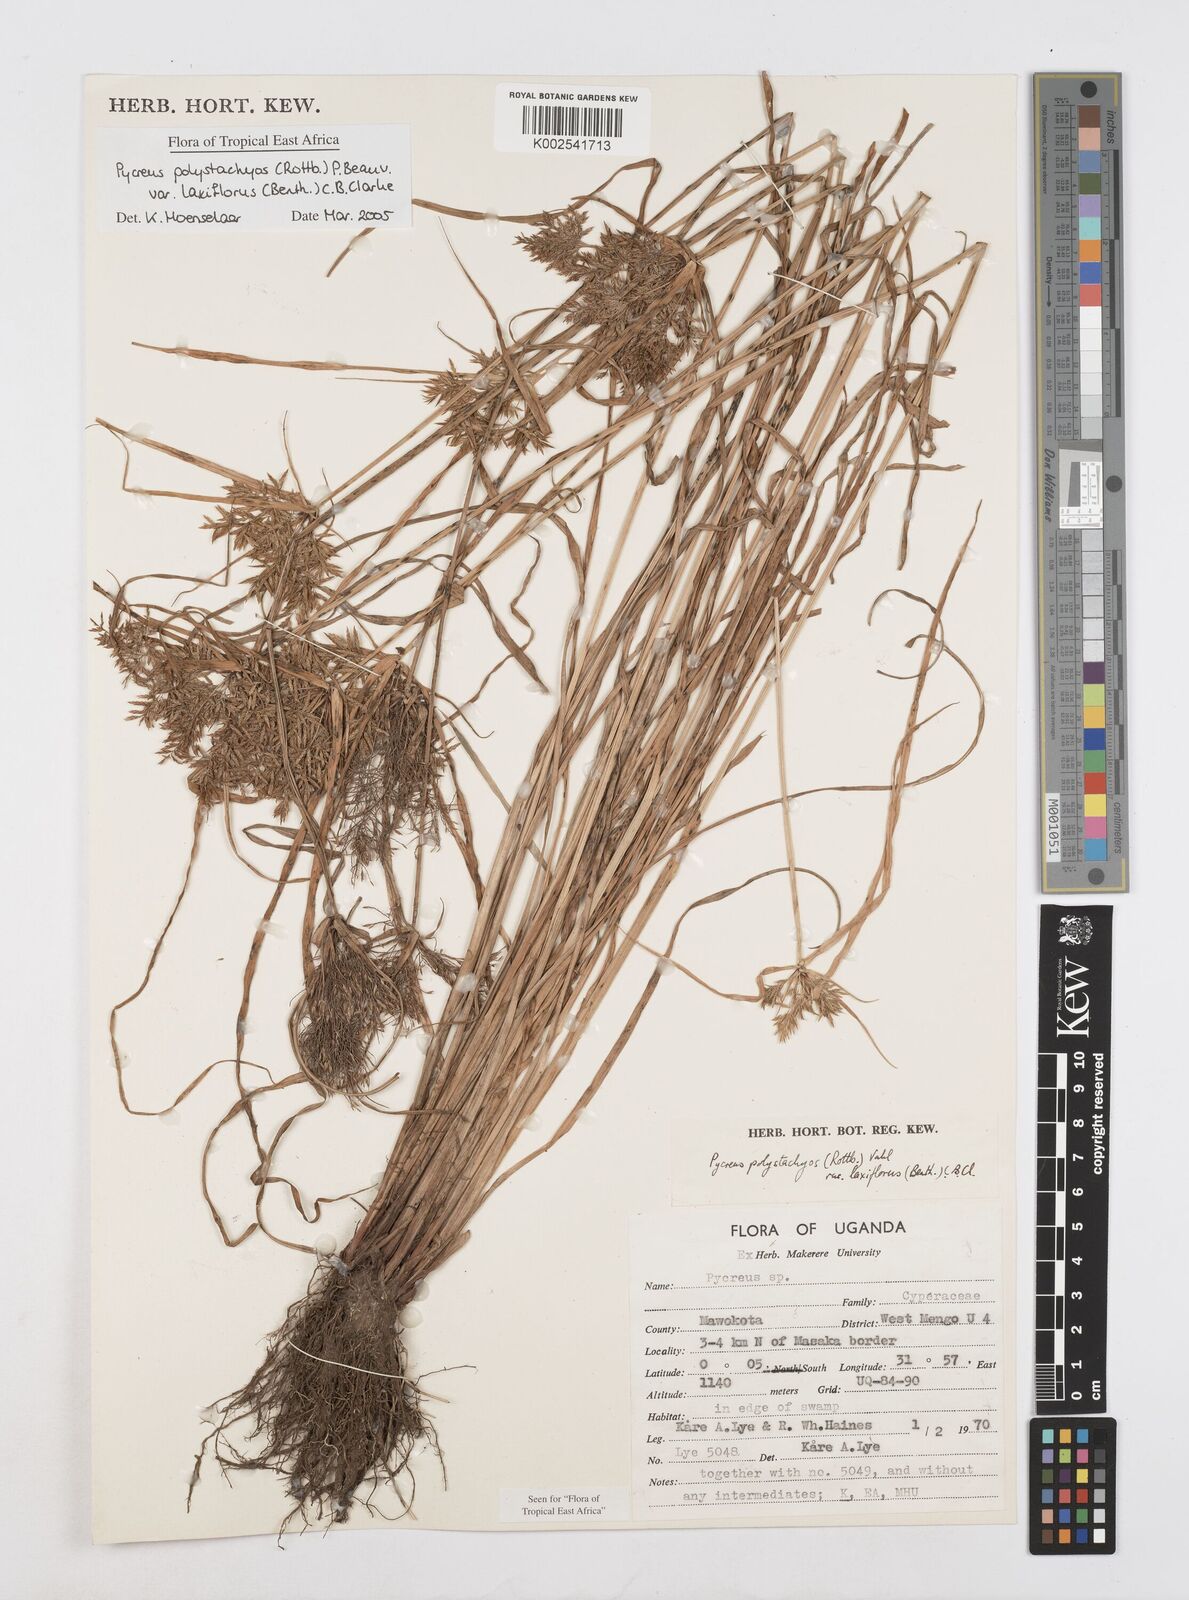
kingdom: Plantae
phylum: Tracheophyta
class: Liliopsida
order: Poales
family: Cyperaceae
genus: Cyperus
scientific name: Cyperus polystachyos
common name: Bunchy flat sedge
